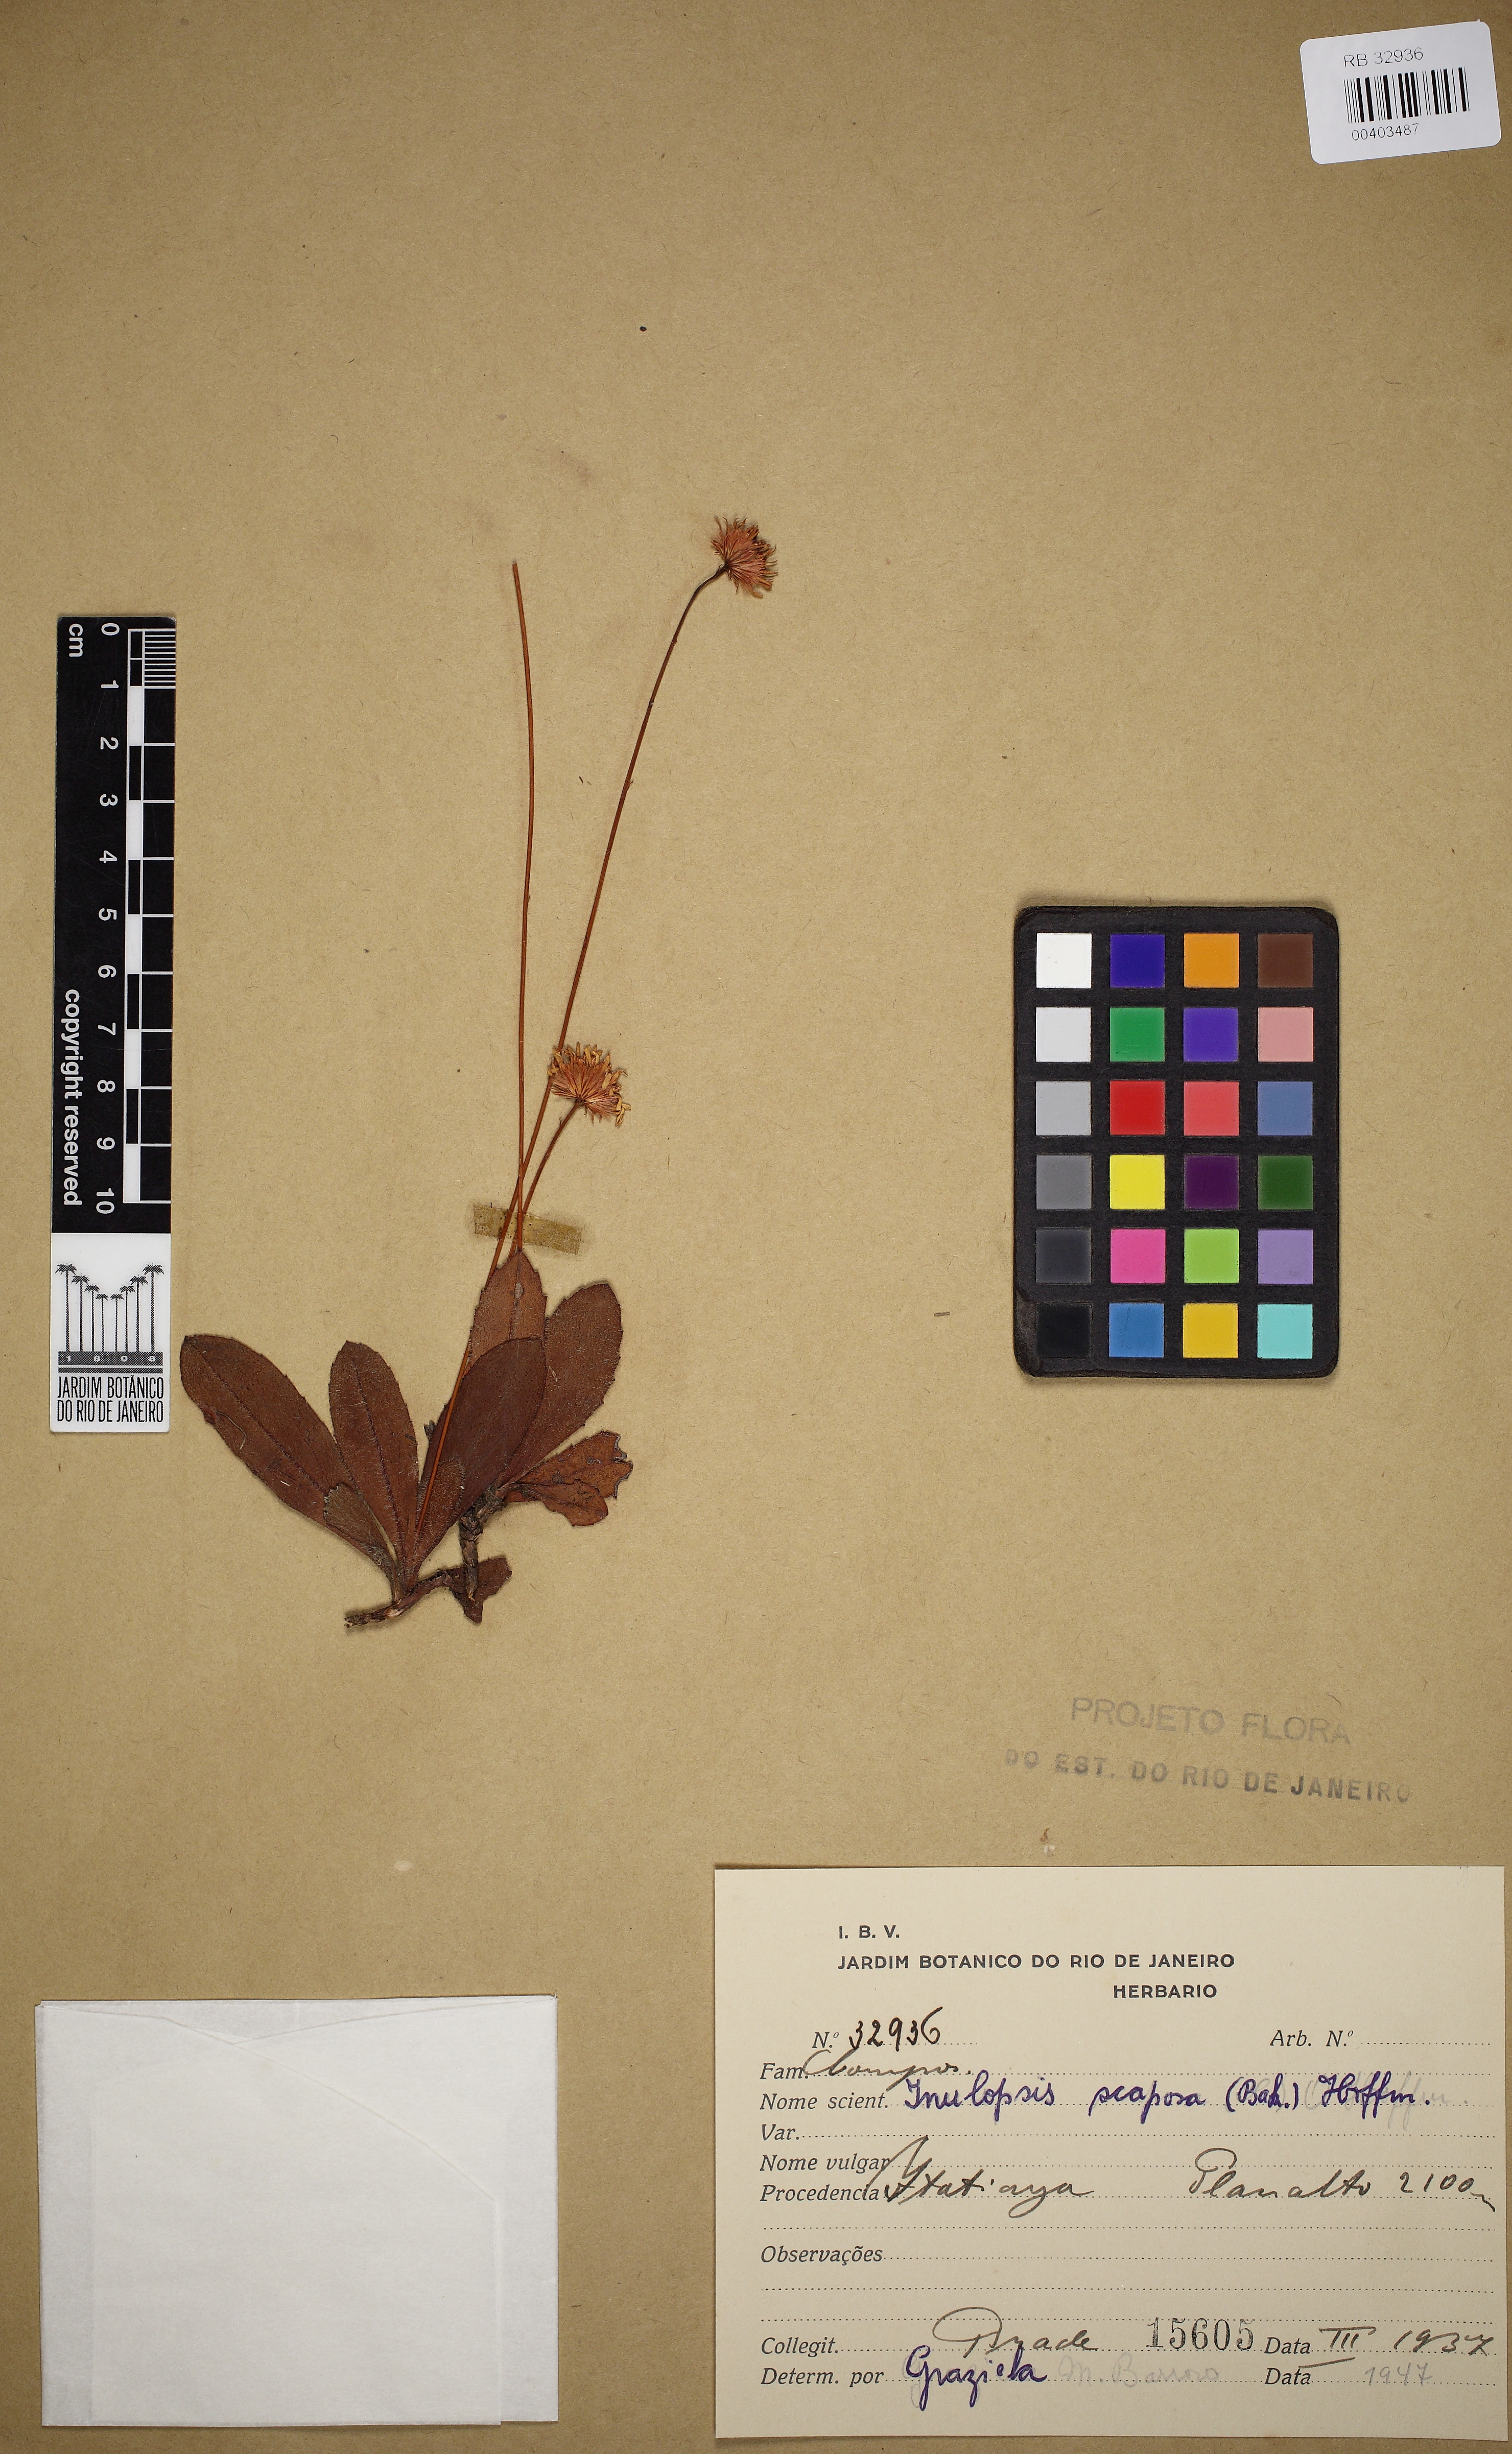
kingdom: Plantae
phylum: Tracheophyta
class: Magnoliopsida
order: Asterales
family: Asteraceae
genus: Inulopsis
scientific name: Inulopsis scaposa
